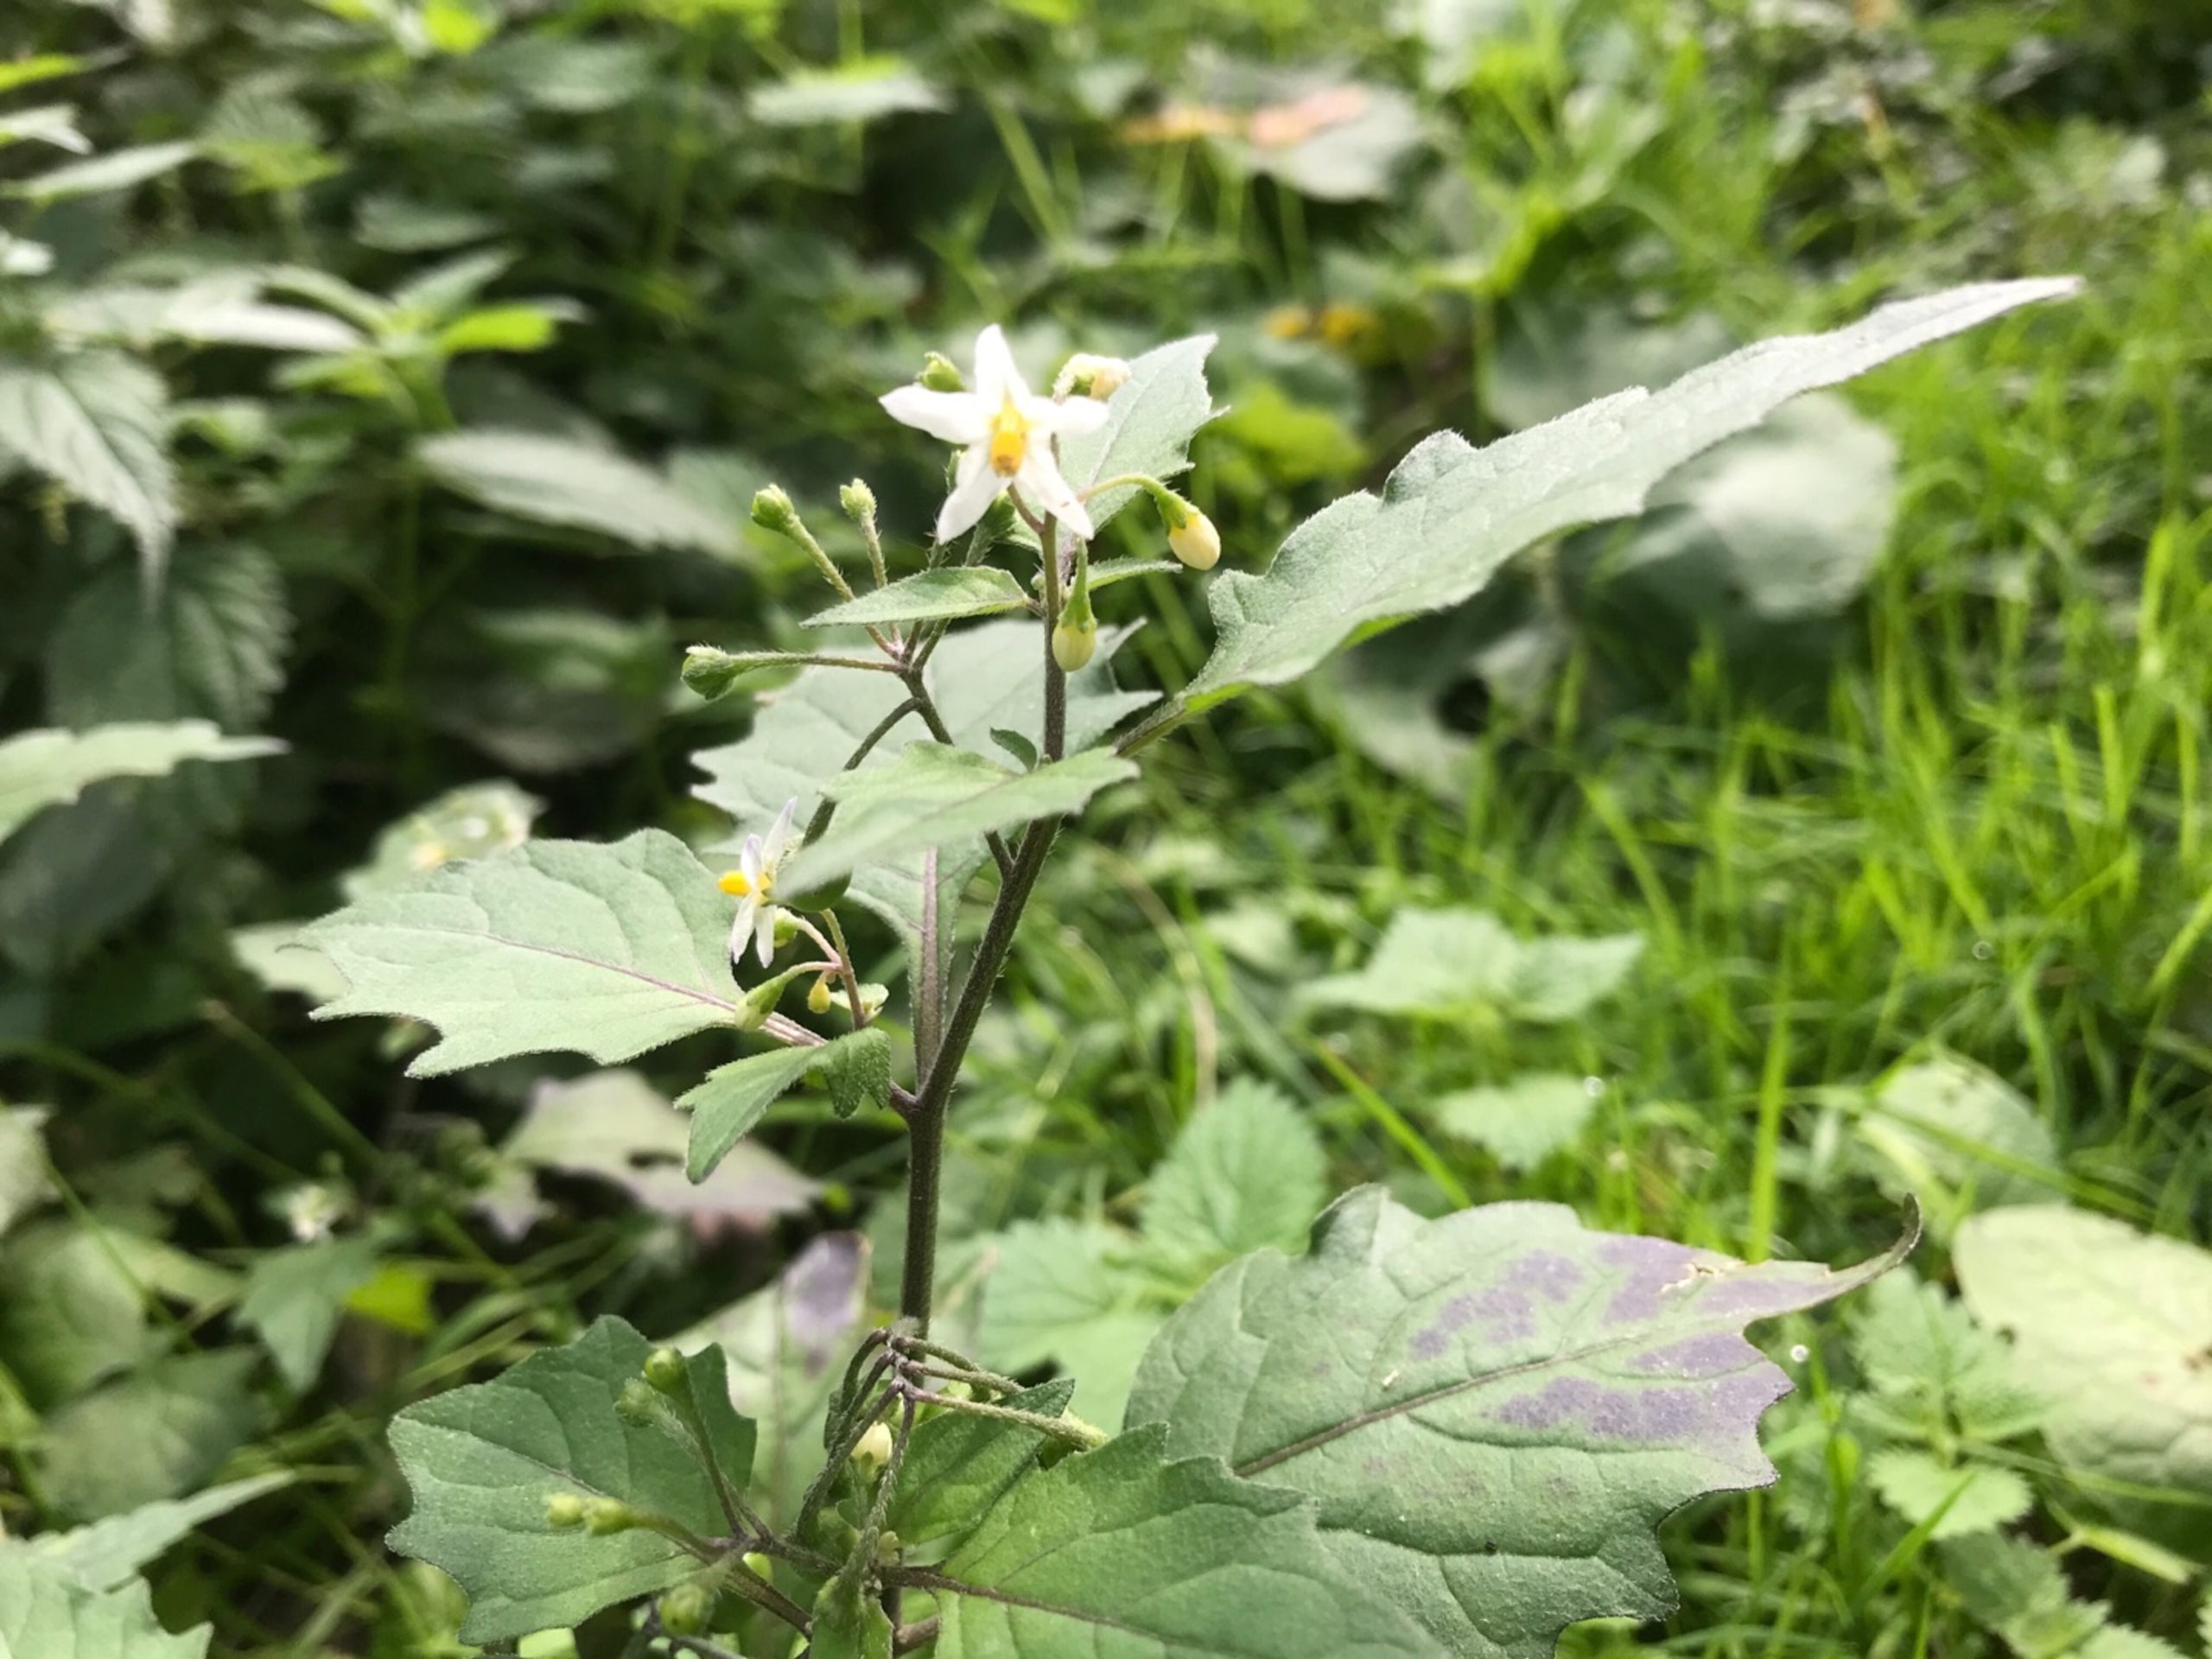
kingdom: Plantae
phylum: Tracheophyta
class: Magnoliopsida
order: Solanales
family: Solanaceae
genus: Solanum
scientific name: Solanum nigrum
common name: Sort natskygge
